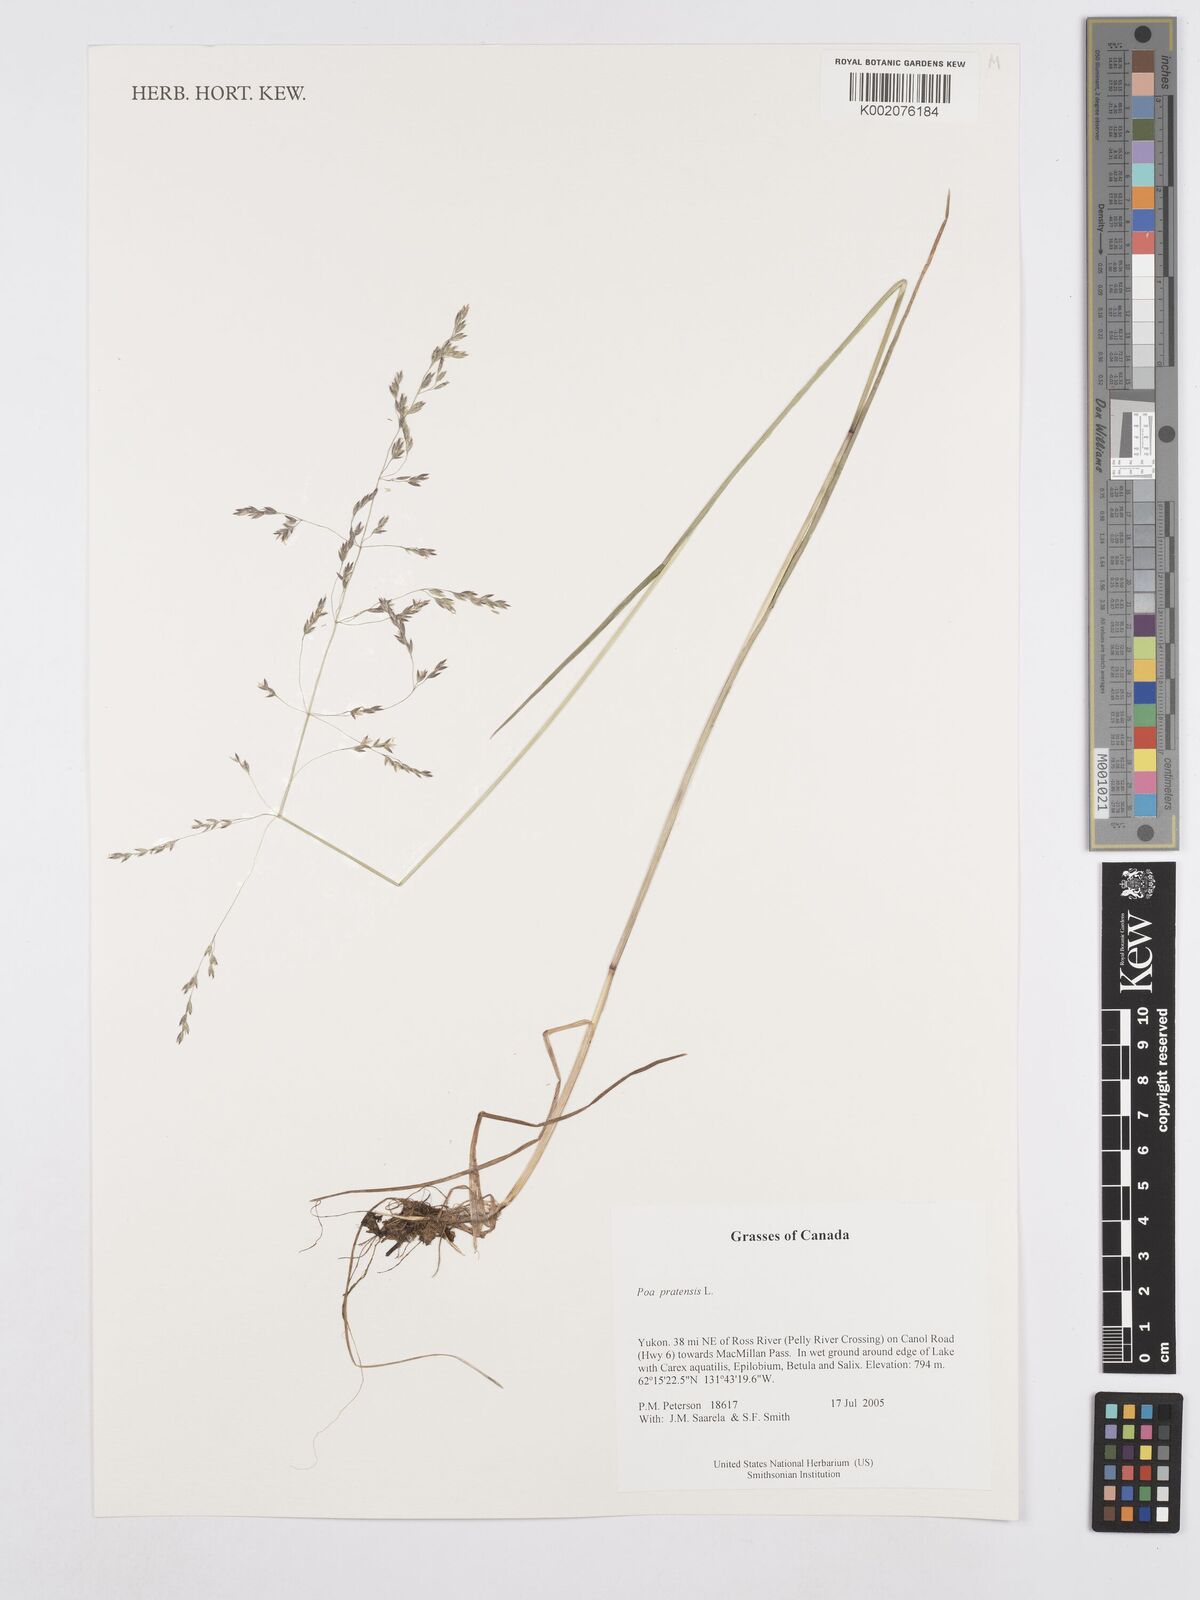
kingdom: Plantae
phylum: Tracheophyta
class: Liliopsida
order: Poales
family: Poaceae
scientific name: Poaceae
